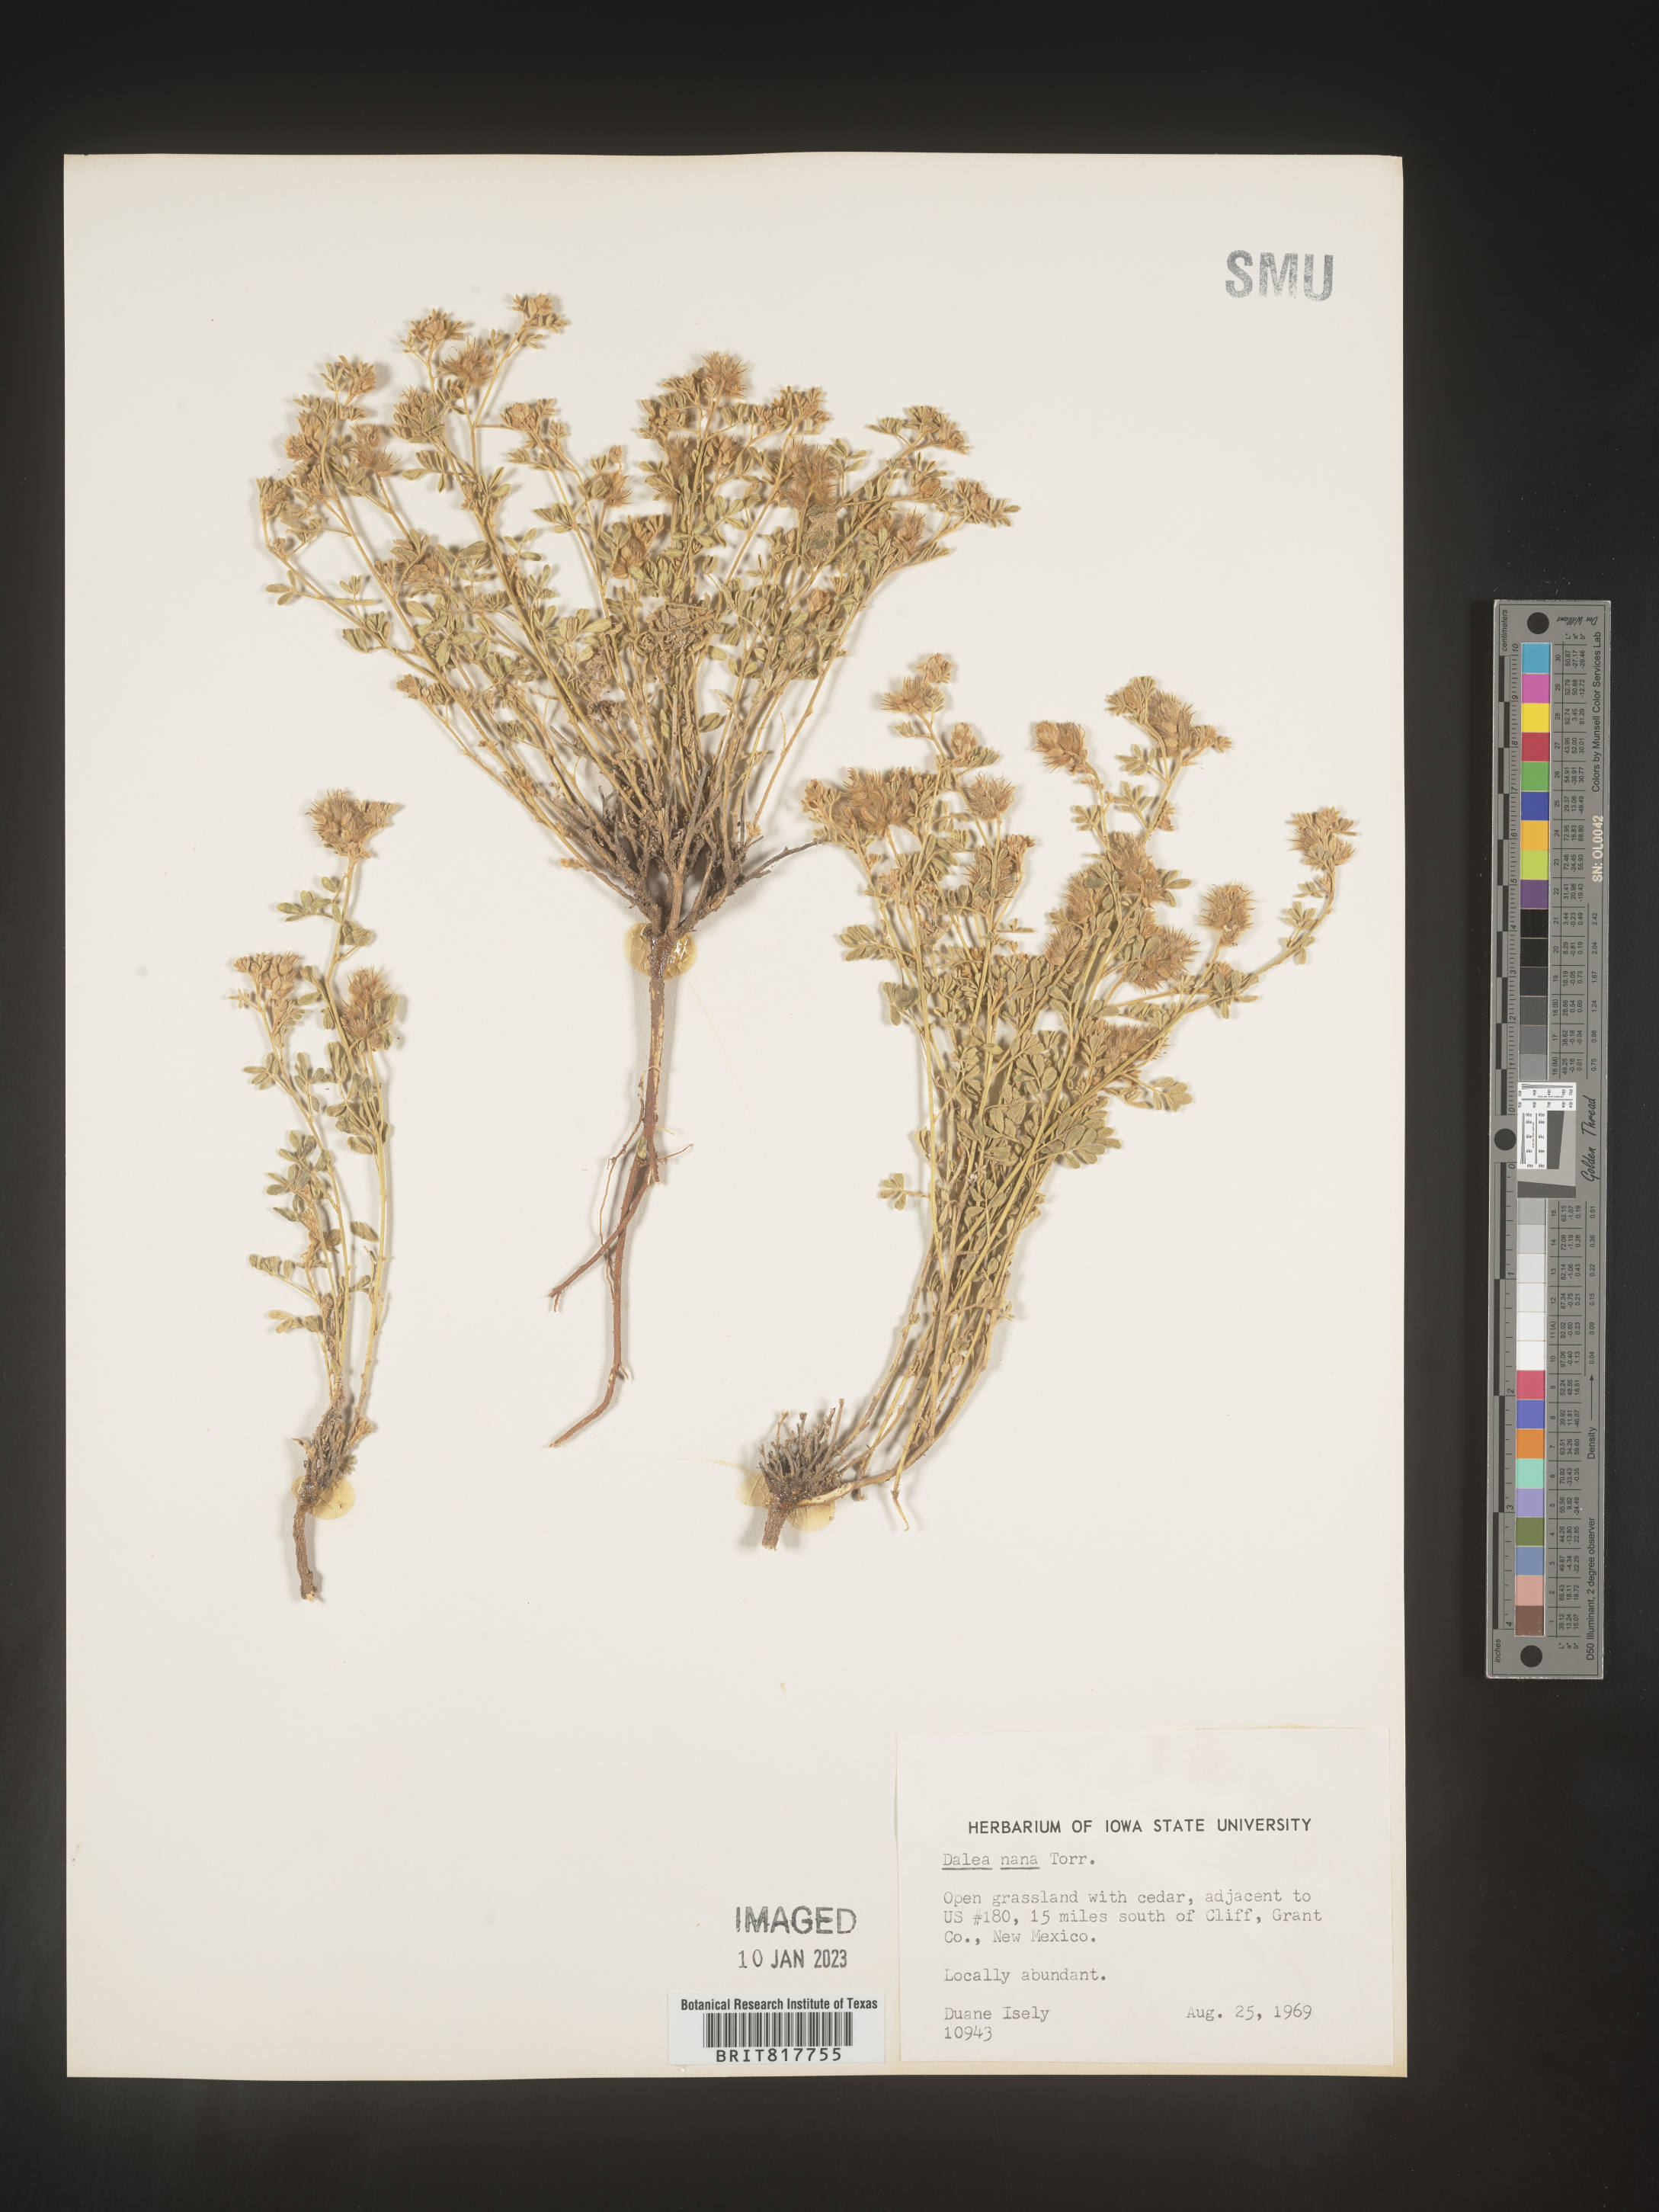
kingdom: Plantae
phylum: Tracheophyta
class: Magnoliopsida
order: Fabales
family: Fabaceae
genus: Dalea
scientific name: Dalea nana
